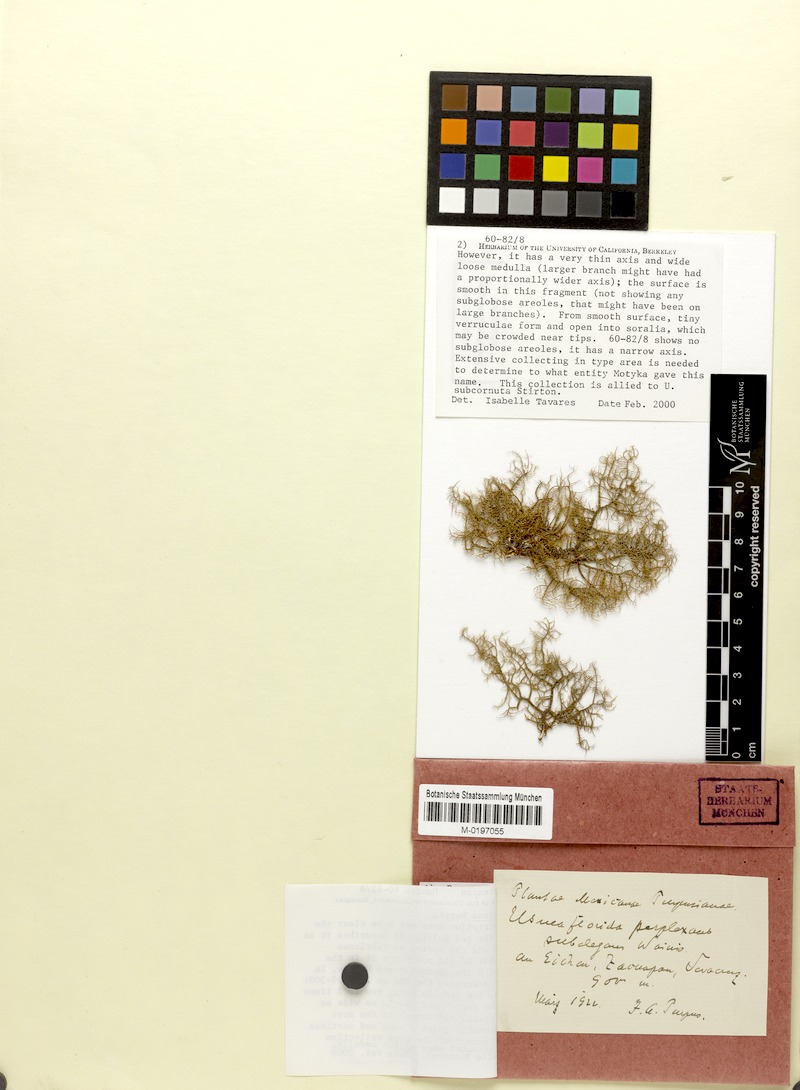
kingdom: Fungi
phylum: Ascomycota
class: Lecanoromycetes
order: Lecanorales
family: Parmeliaceae
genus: Usnea
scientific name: Usnea moreliana
